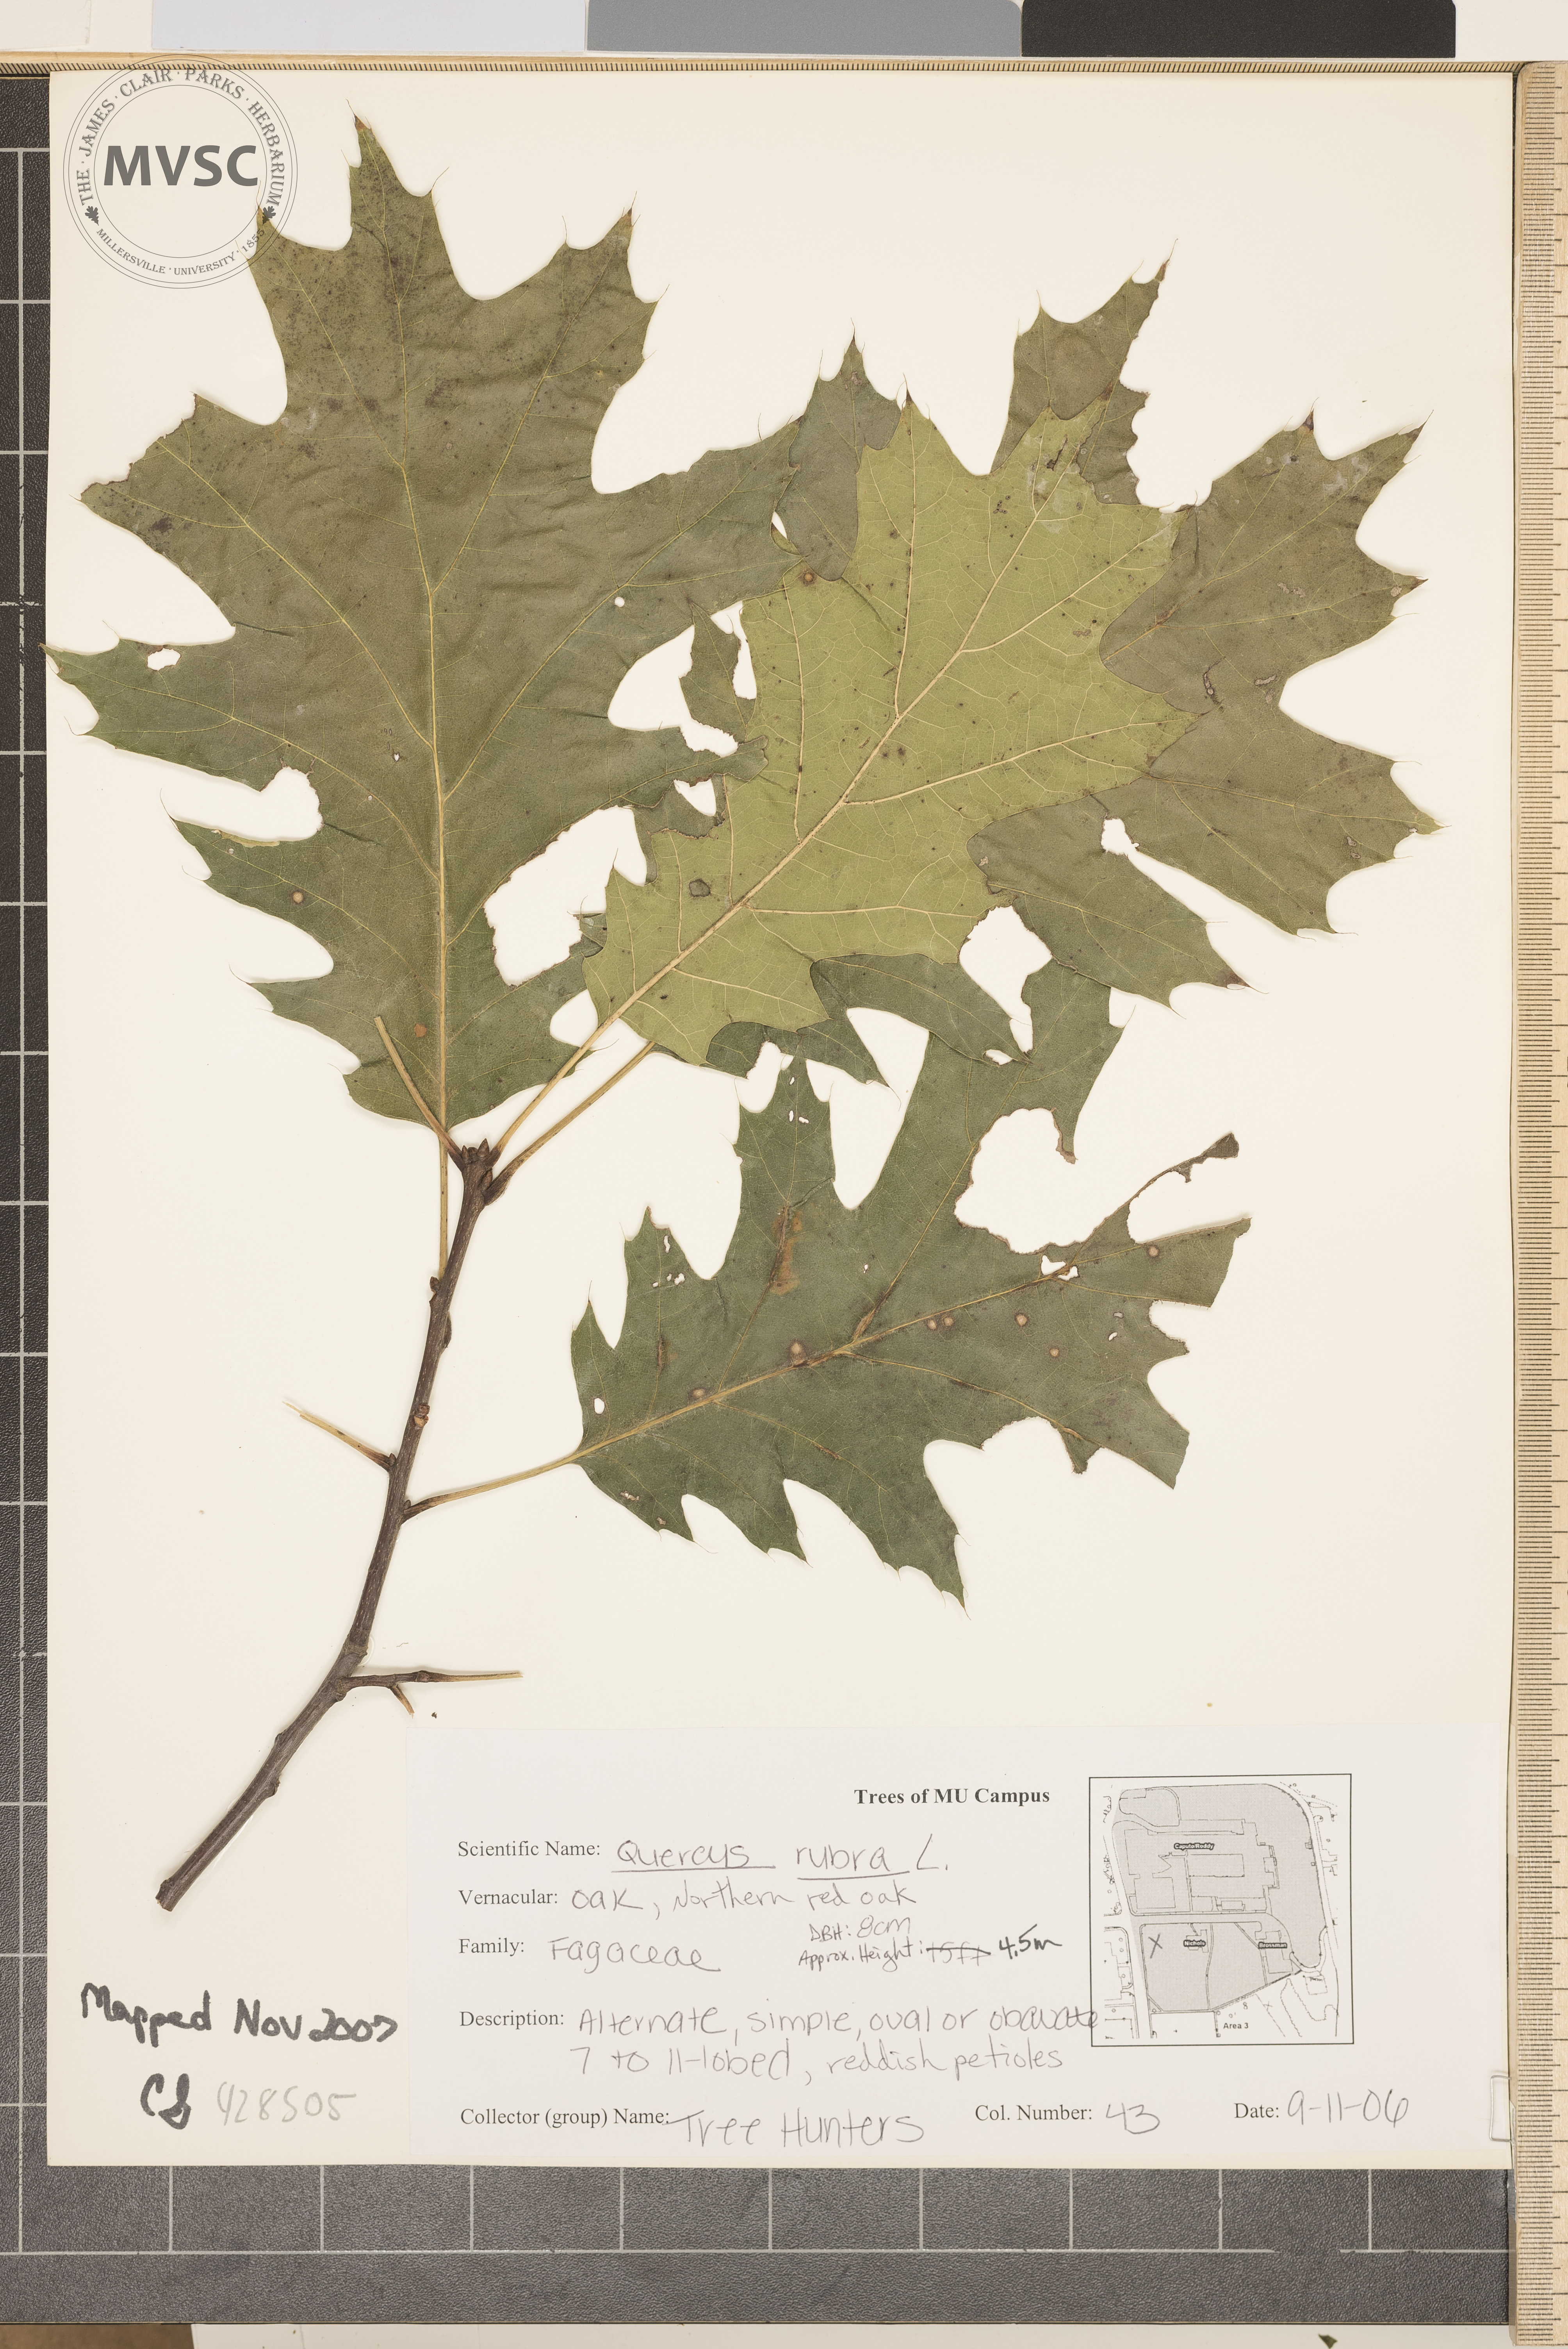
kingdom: Plantae
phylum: Tracheophyta
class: Magnoliopsida
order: Fagales
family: Fagaceae
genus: Quercus
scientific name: Quercus rubra
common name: Northern Red Oak
